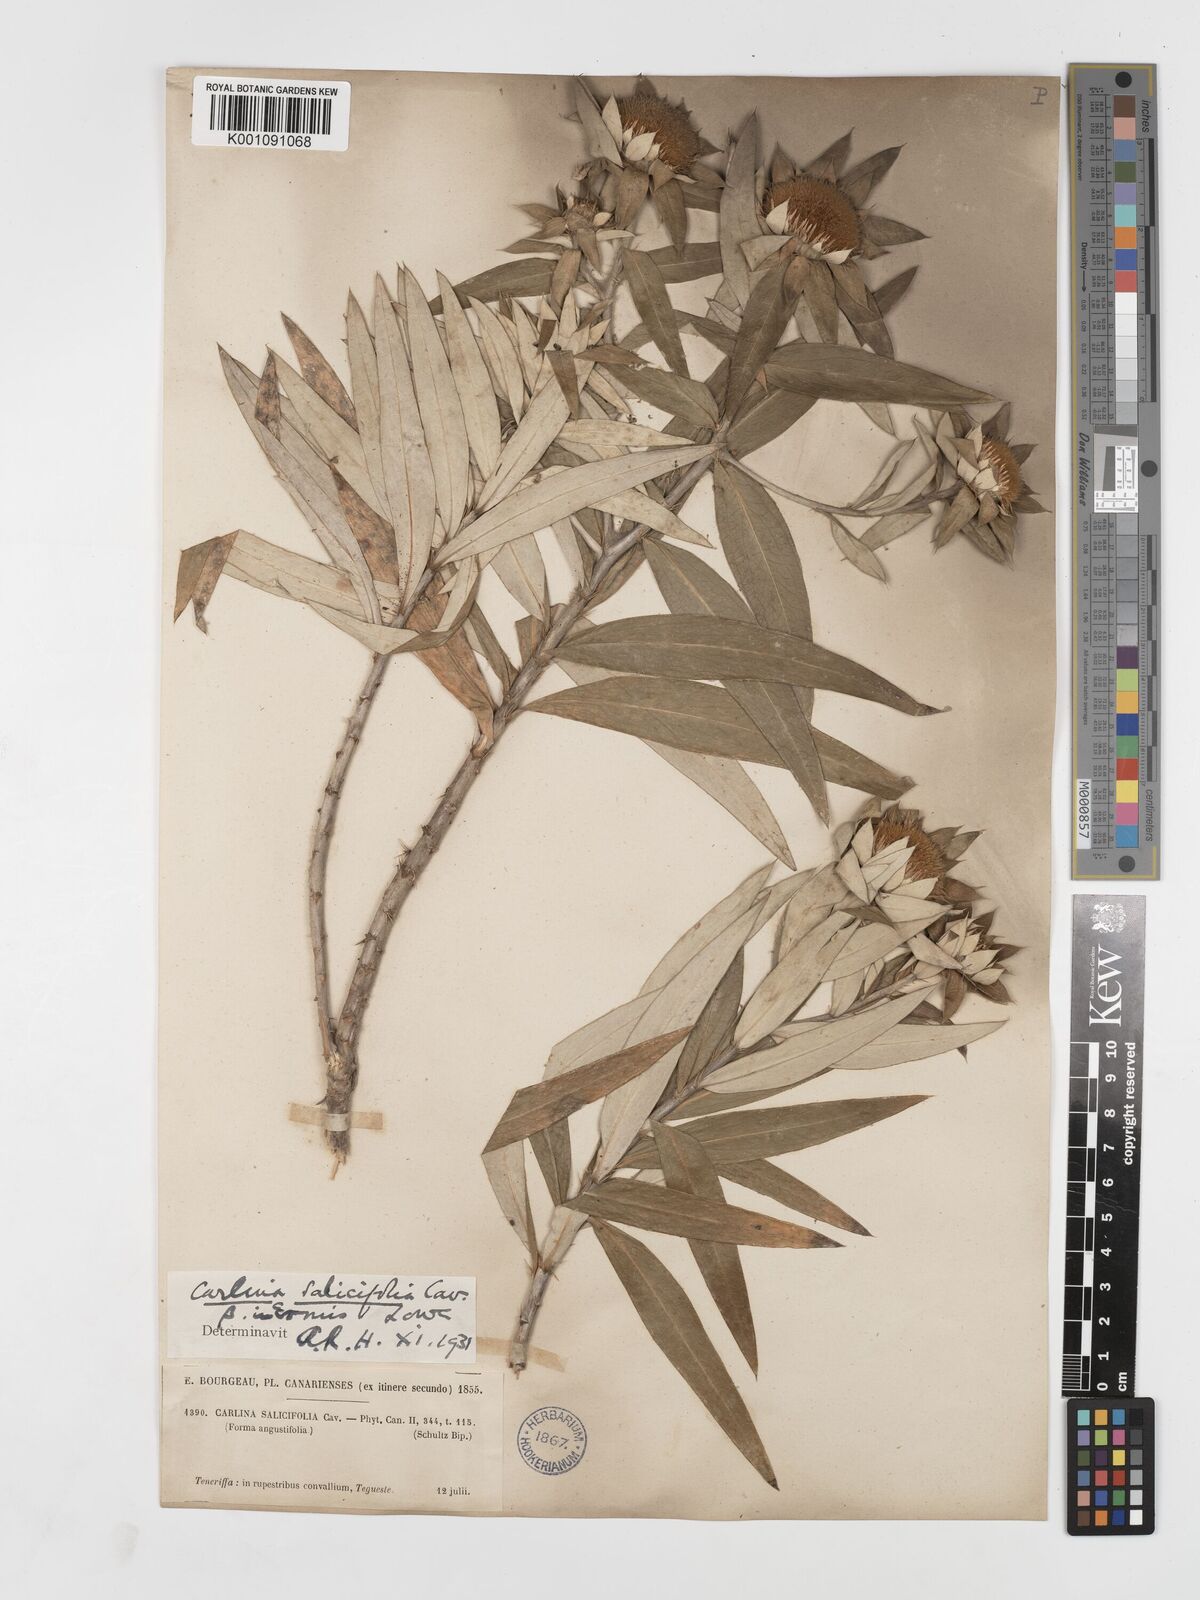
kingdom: Plantae
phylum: Tracheophyta
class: Magnoliopsida
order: Asterales
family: Asteraceae
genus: Carlina
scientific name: Carlina salicifolia
